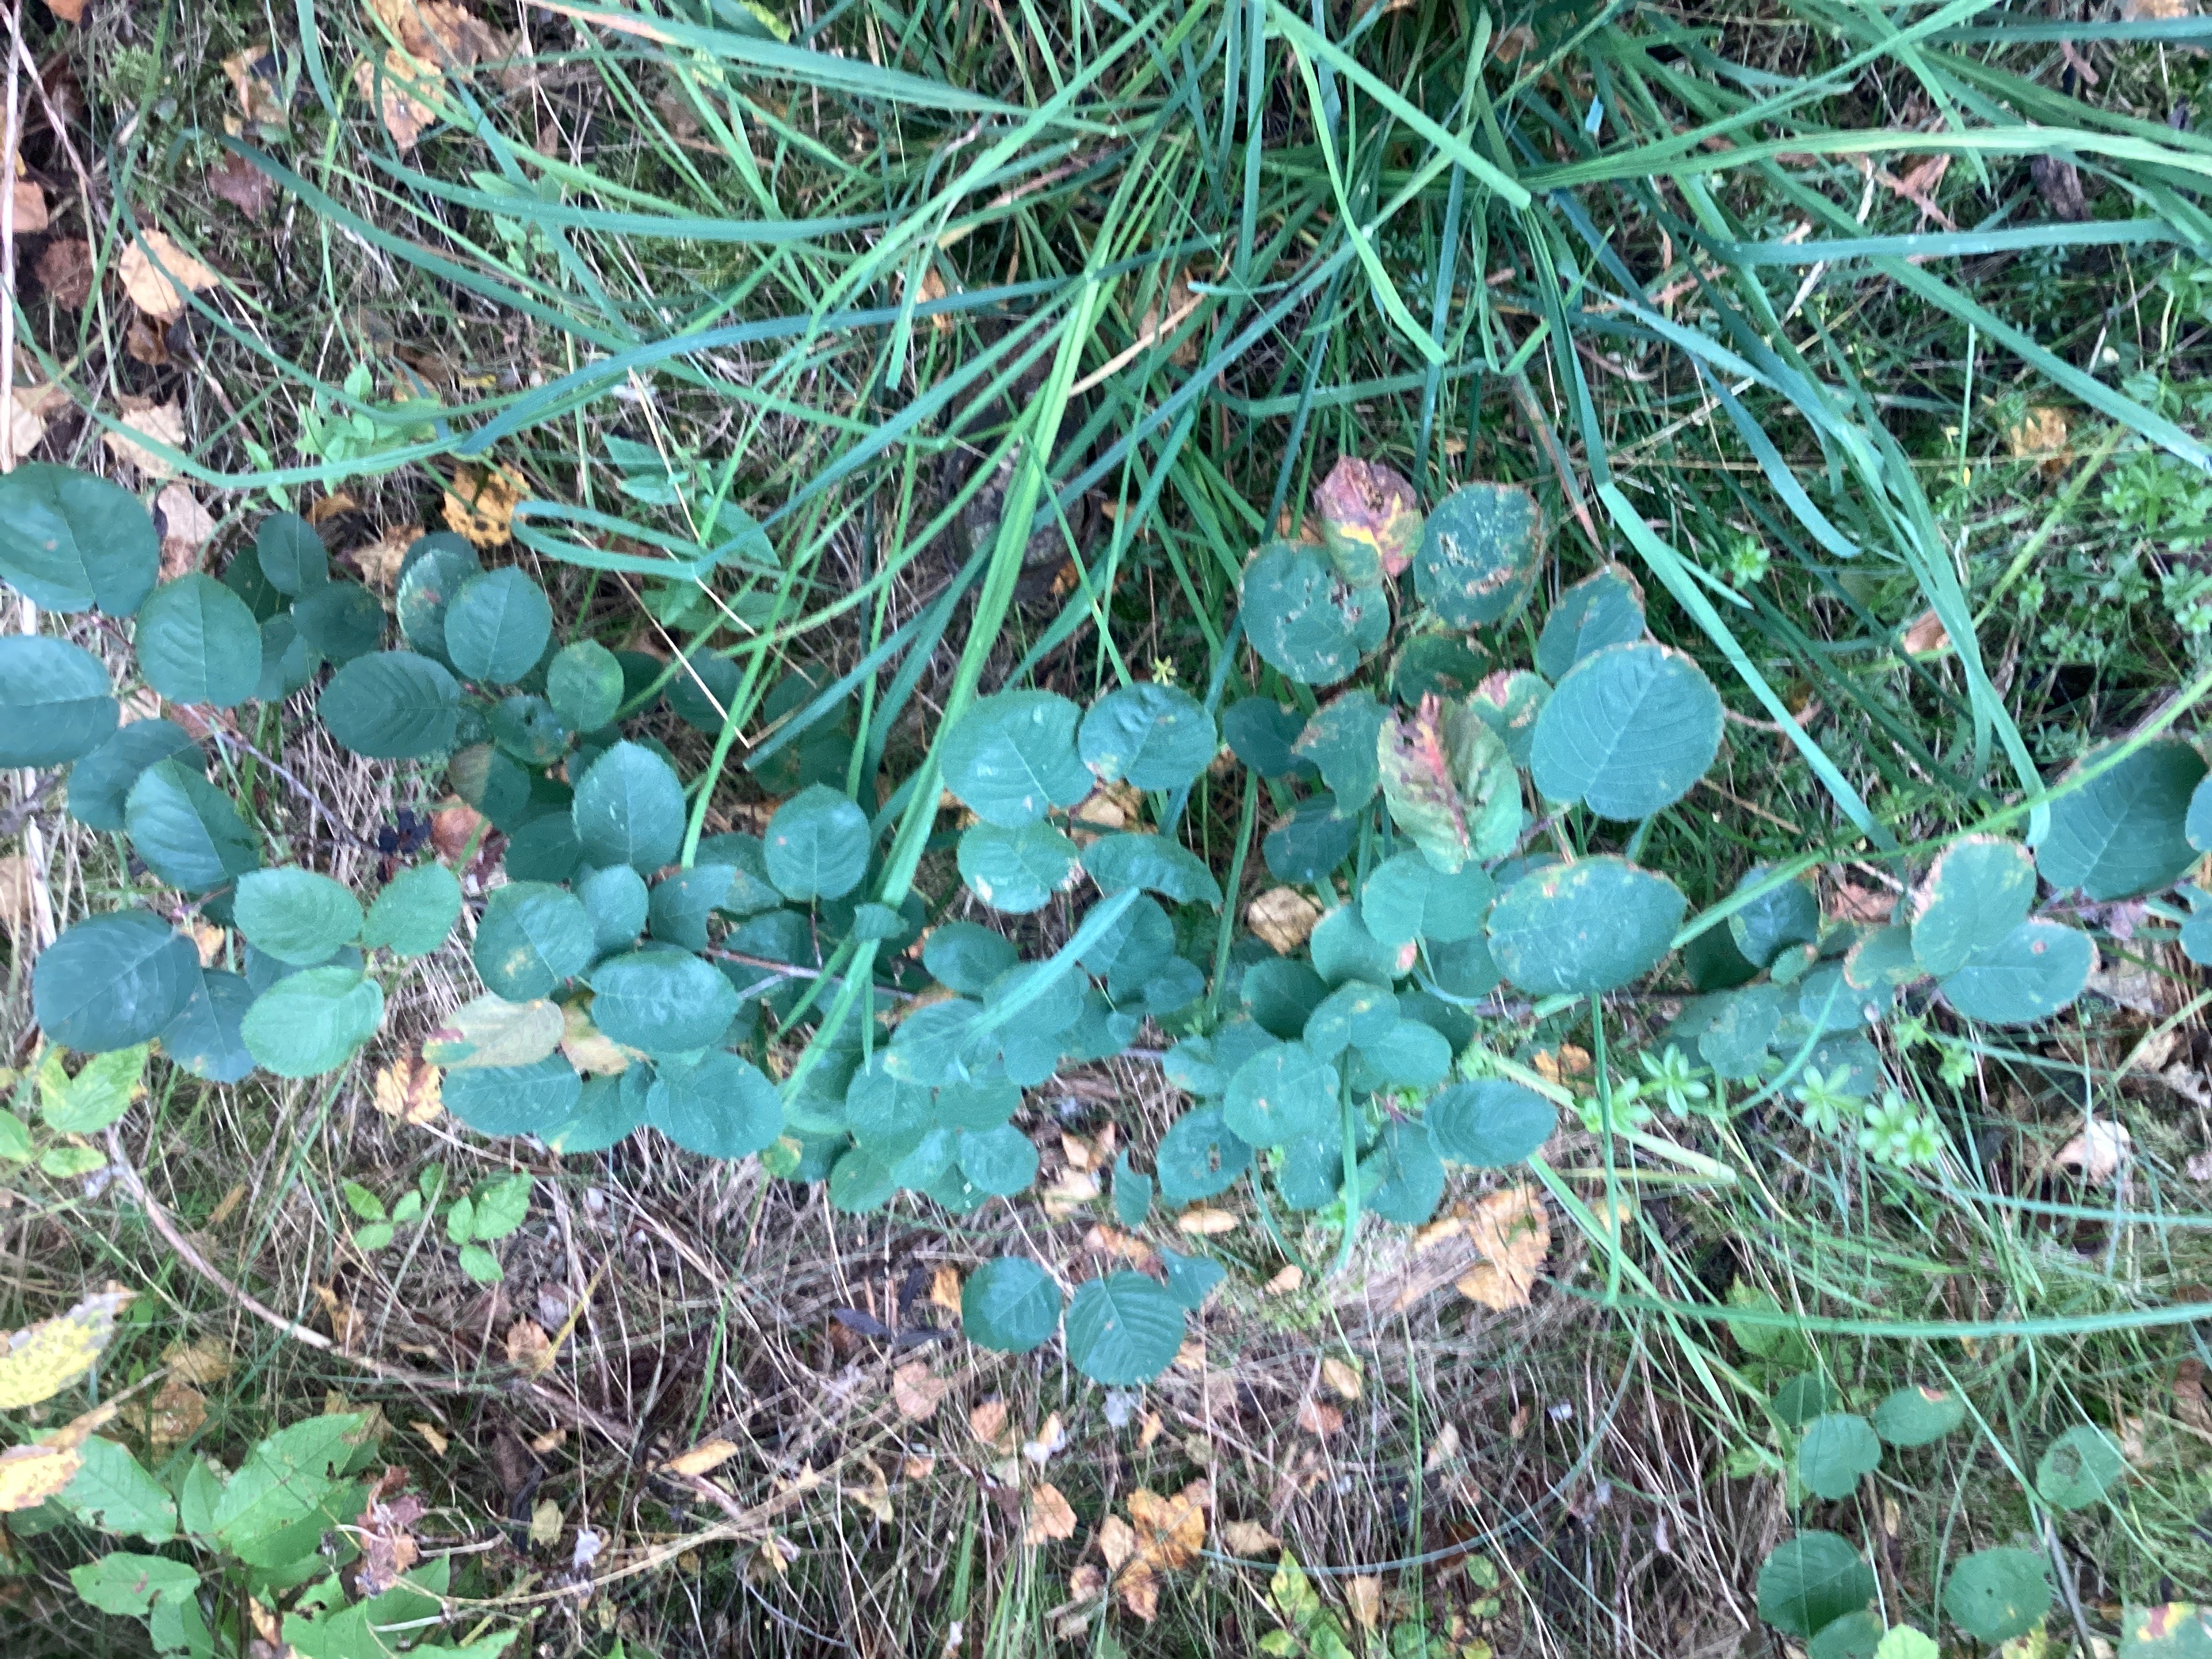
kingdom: Plantae
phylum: Tracheophyta
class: Magnoliopsida
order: Rosales
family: Rosaceae
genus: Amelanchier
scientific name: Amelanchier humilis
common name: blåhegg
